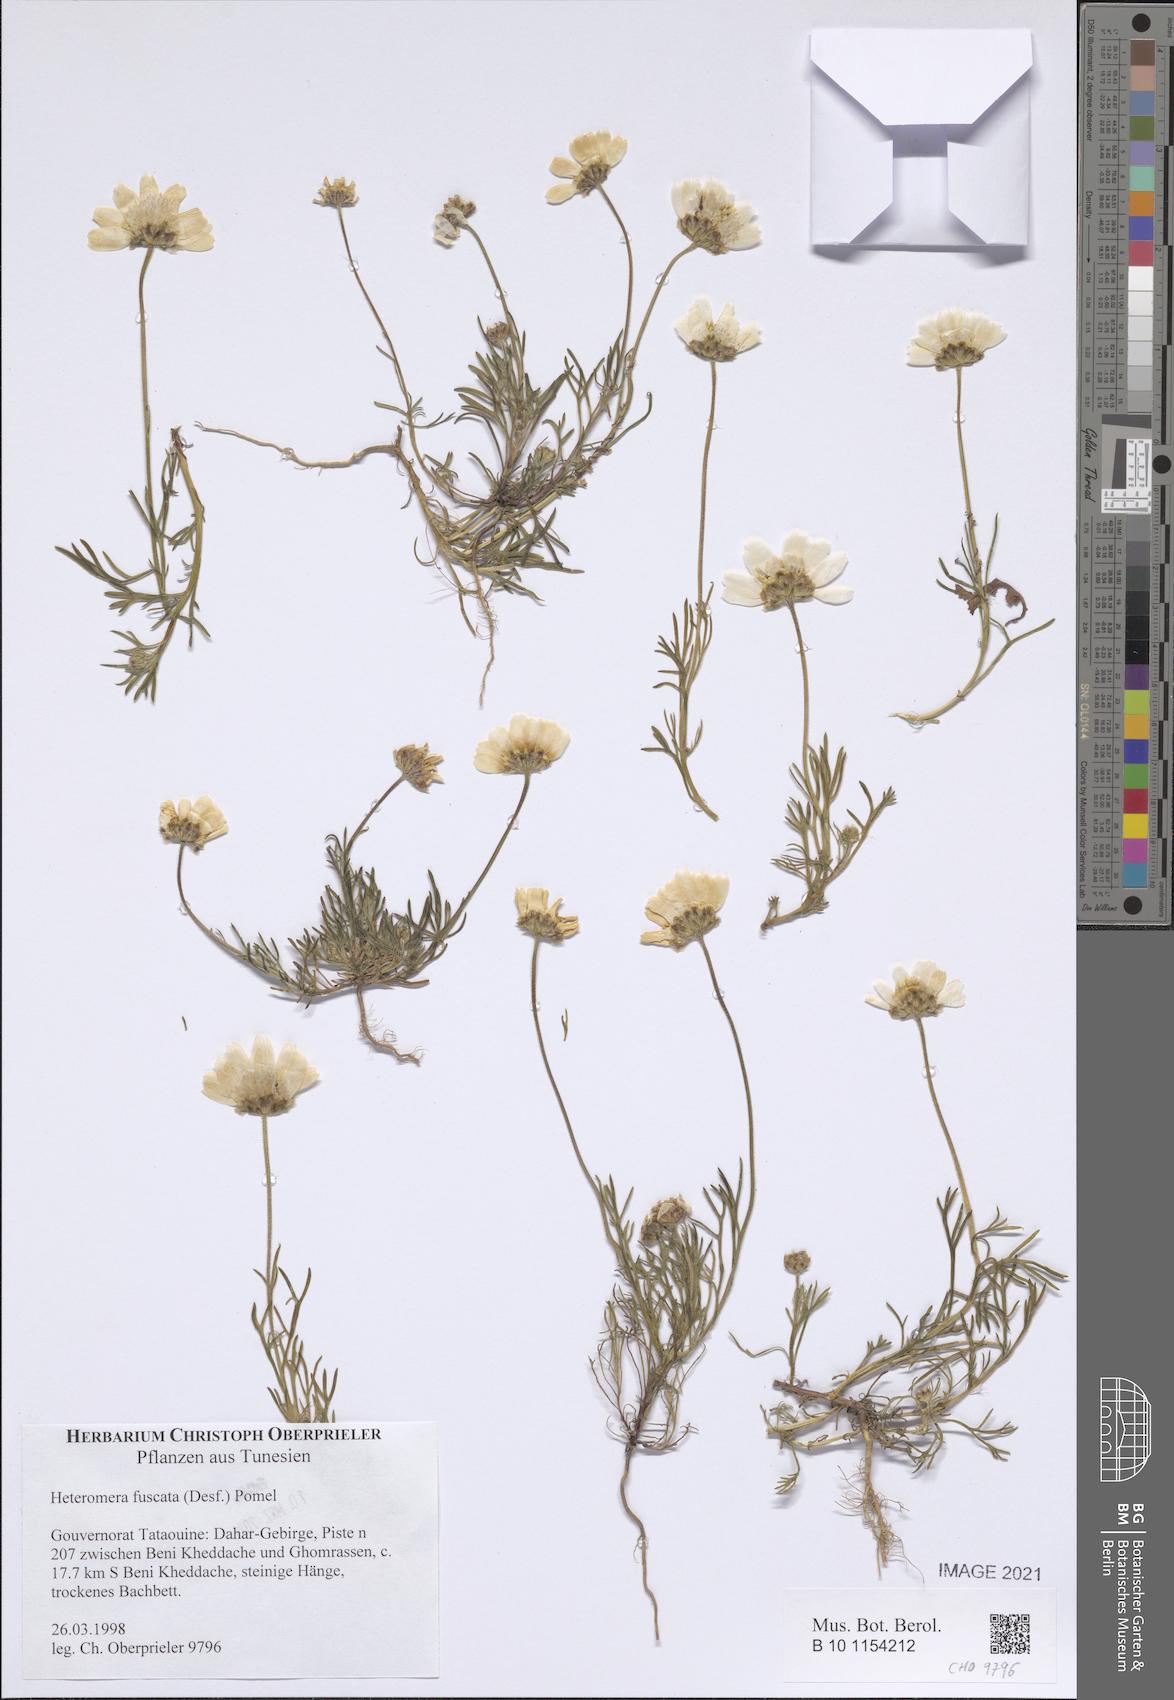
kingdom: Plantae
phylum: Tracheophyta
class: Magnoliopsida
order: Asterales
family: Asteraceae
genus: Heteromera
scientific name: Heteromera fuscata
